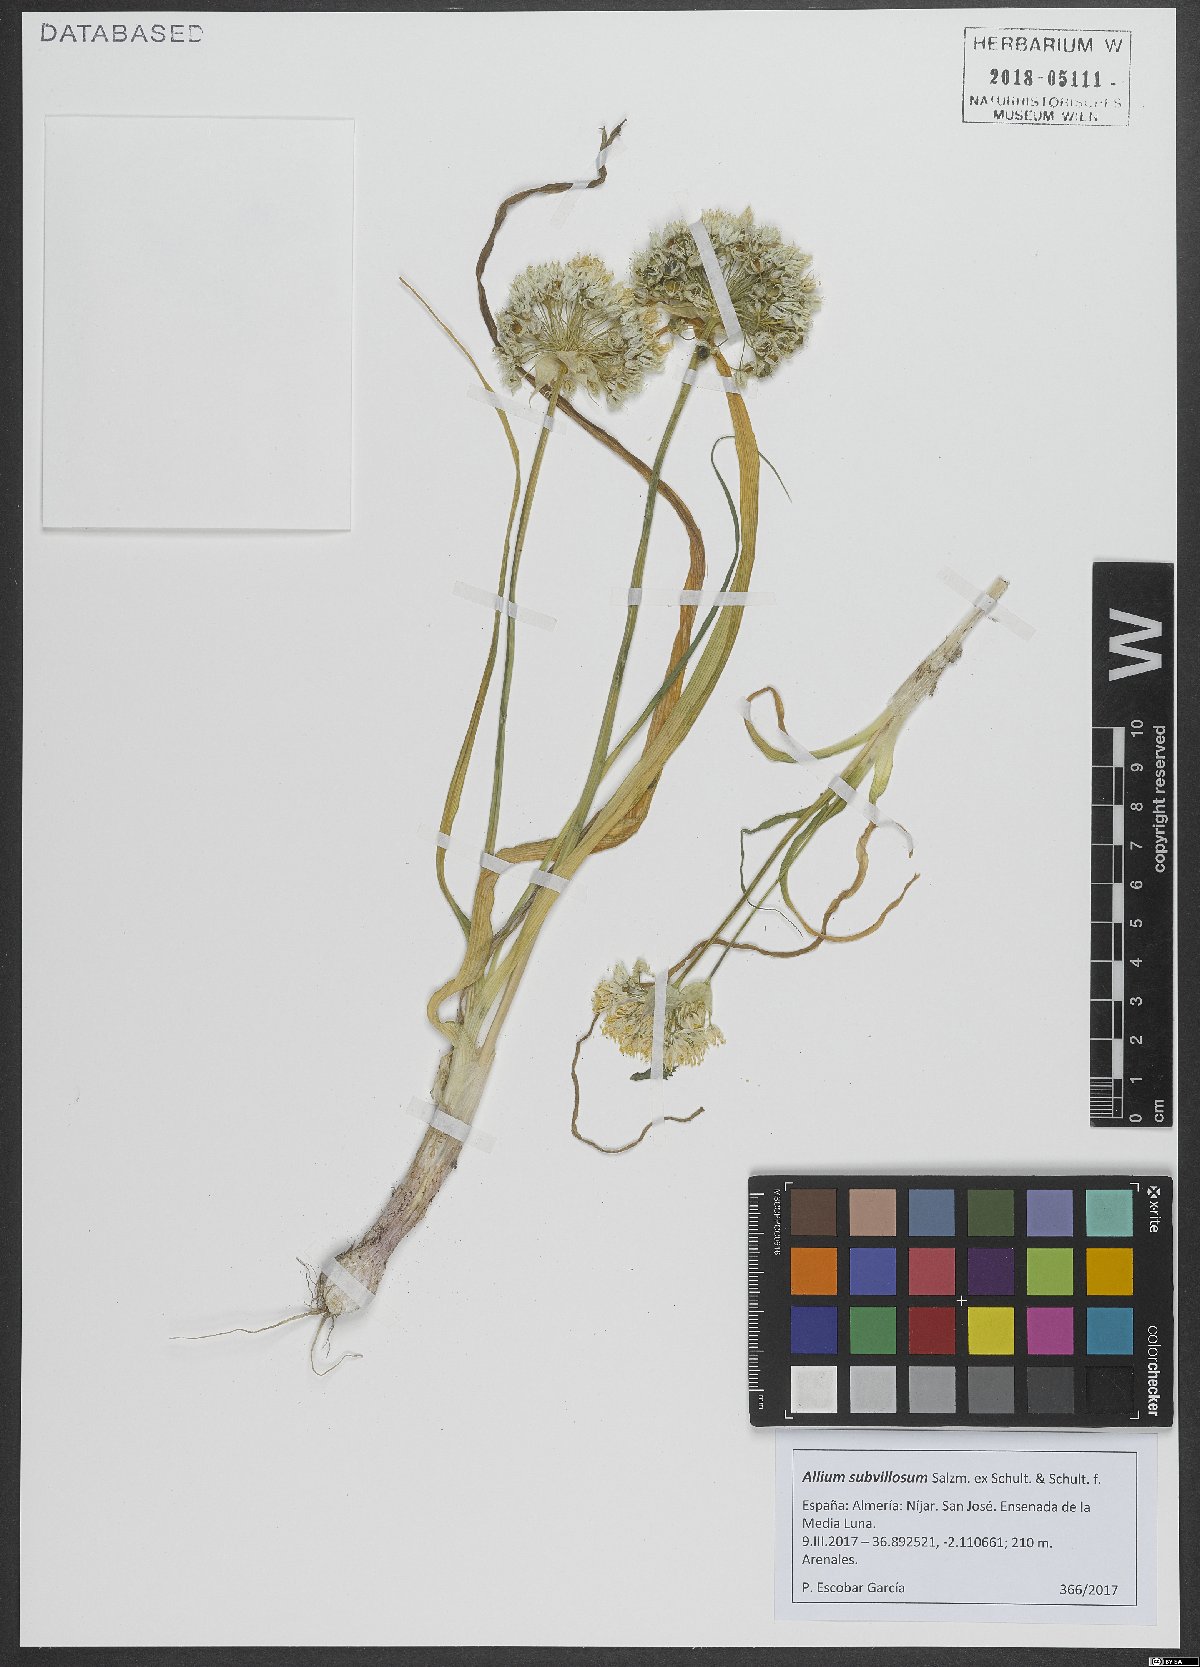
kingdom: Plantae
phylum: Tracheophyta
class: Liliopsida
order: Asparagales
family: Amaryllidaceae
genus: Allium
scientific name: Allium subvillosum
